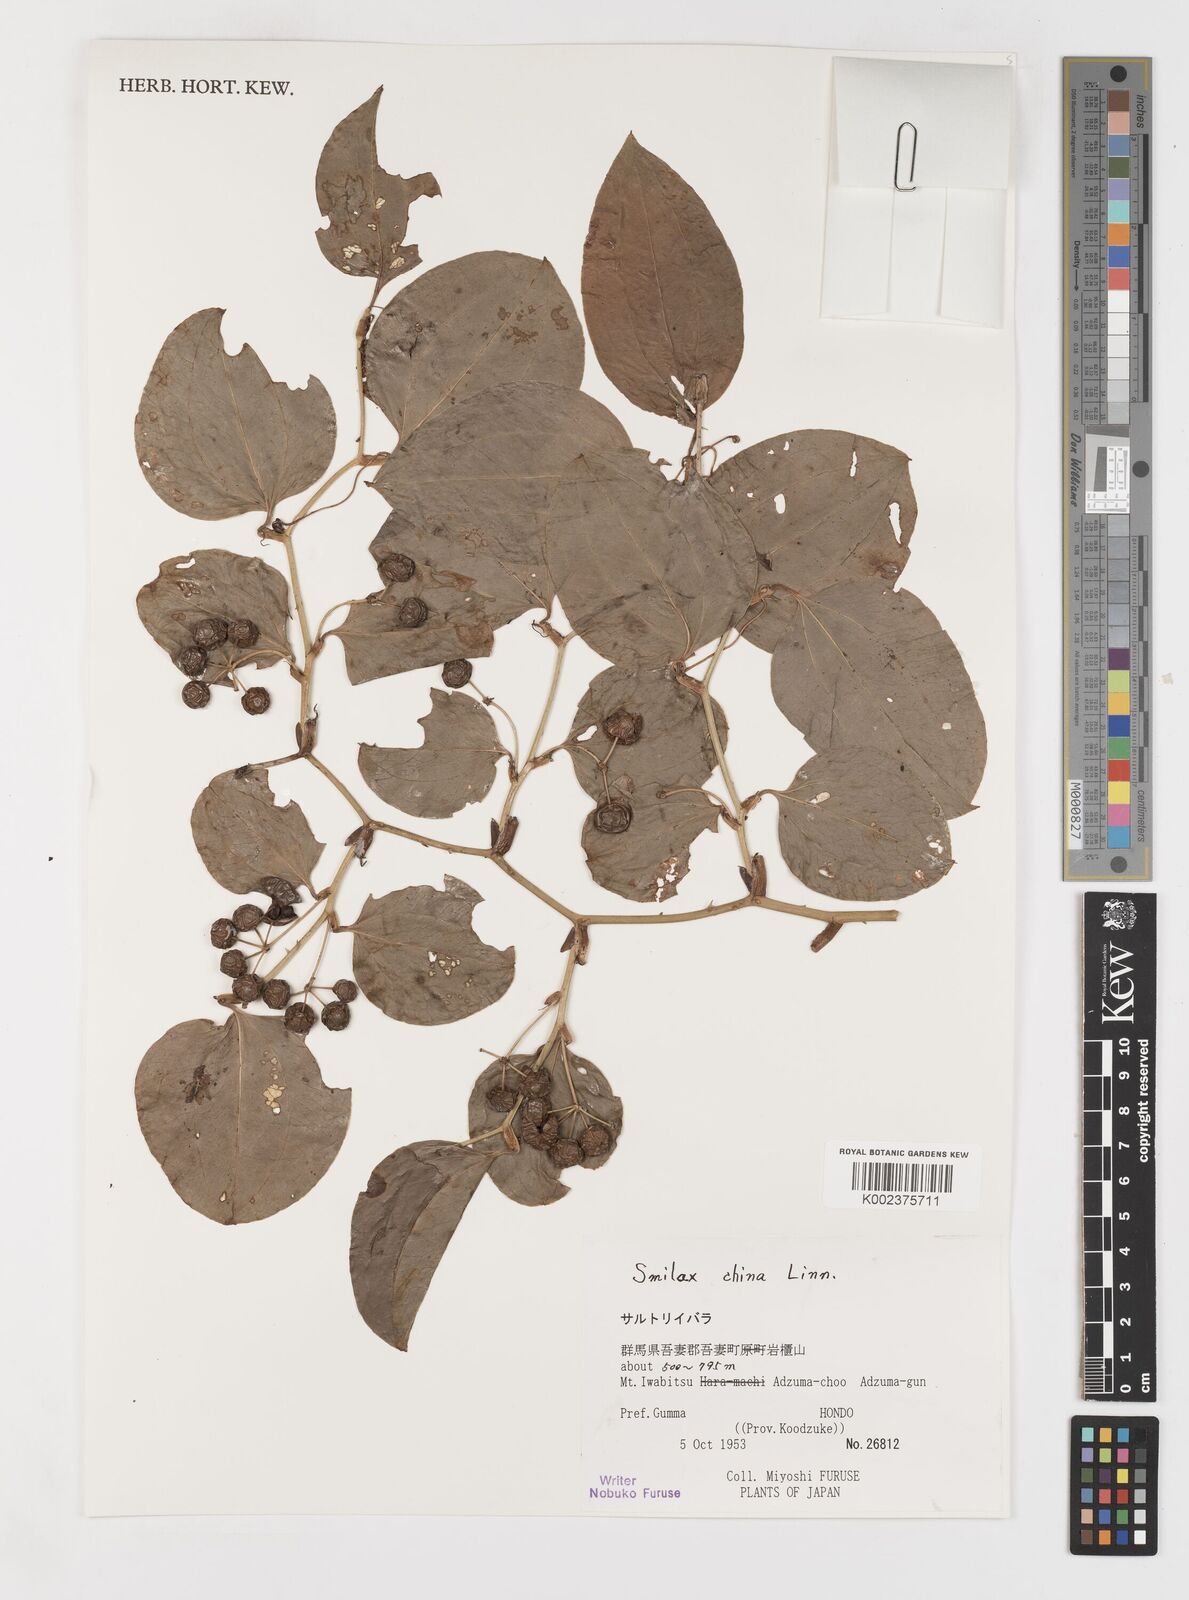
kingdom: Plantae
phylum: Tracheophyta
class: Liliopsida
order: Liliales
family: Smilacaceae
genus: Smilax
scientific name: Smilax china
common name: Chinaroot
